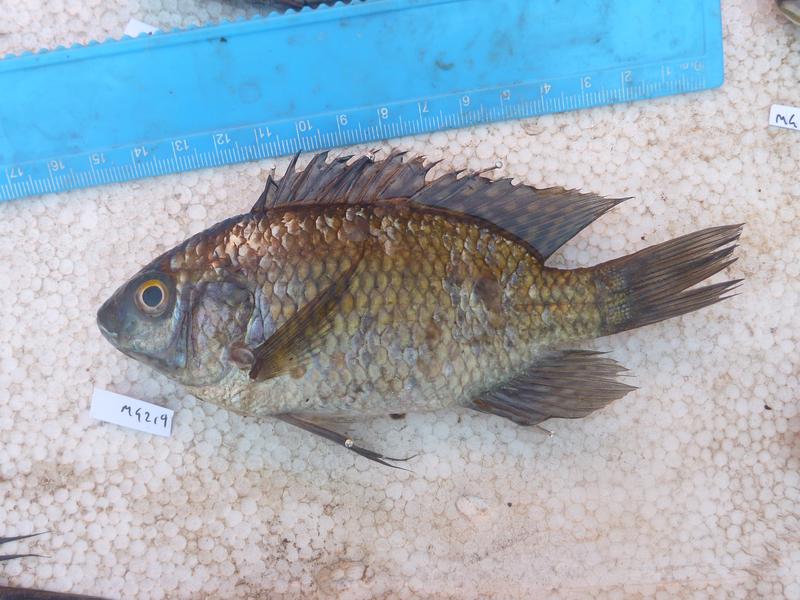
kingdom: Animalia
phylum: Chordata
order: Perciformes
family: Cichlidae
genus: Oreochromis
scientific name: Oreochromis leucostictus
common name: Blue spotted tilapia
